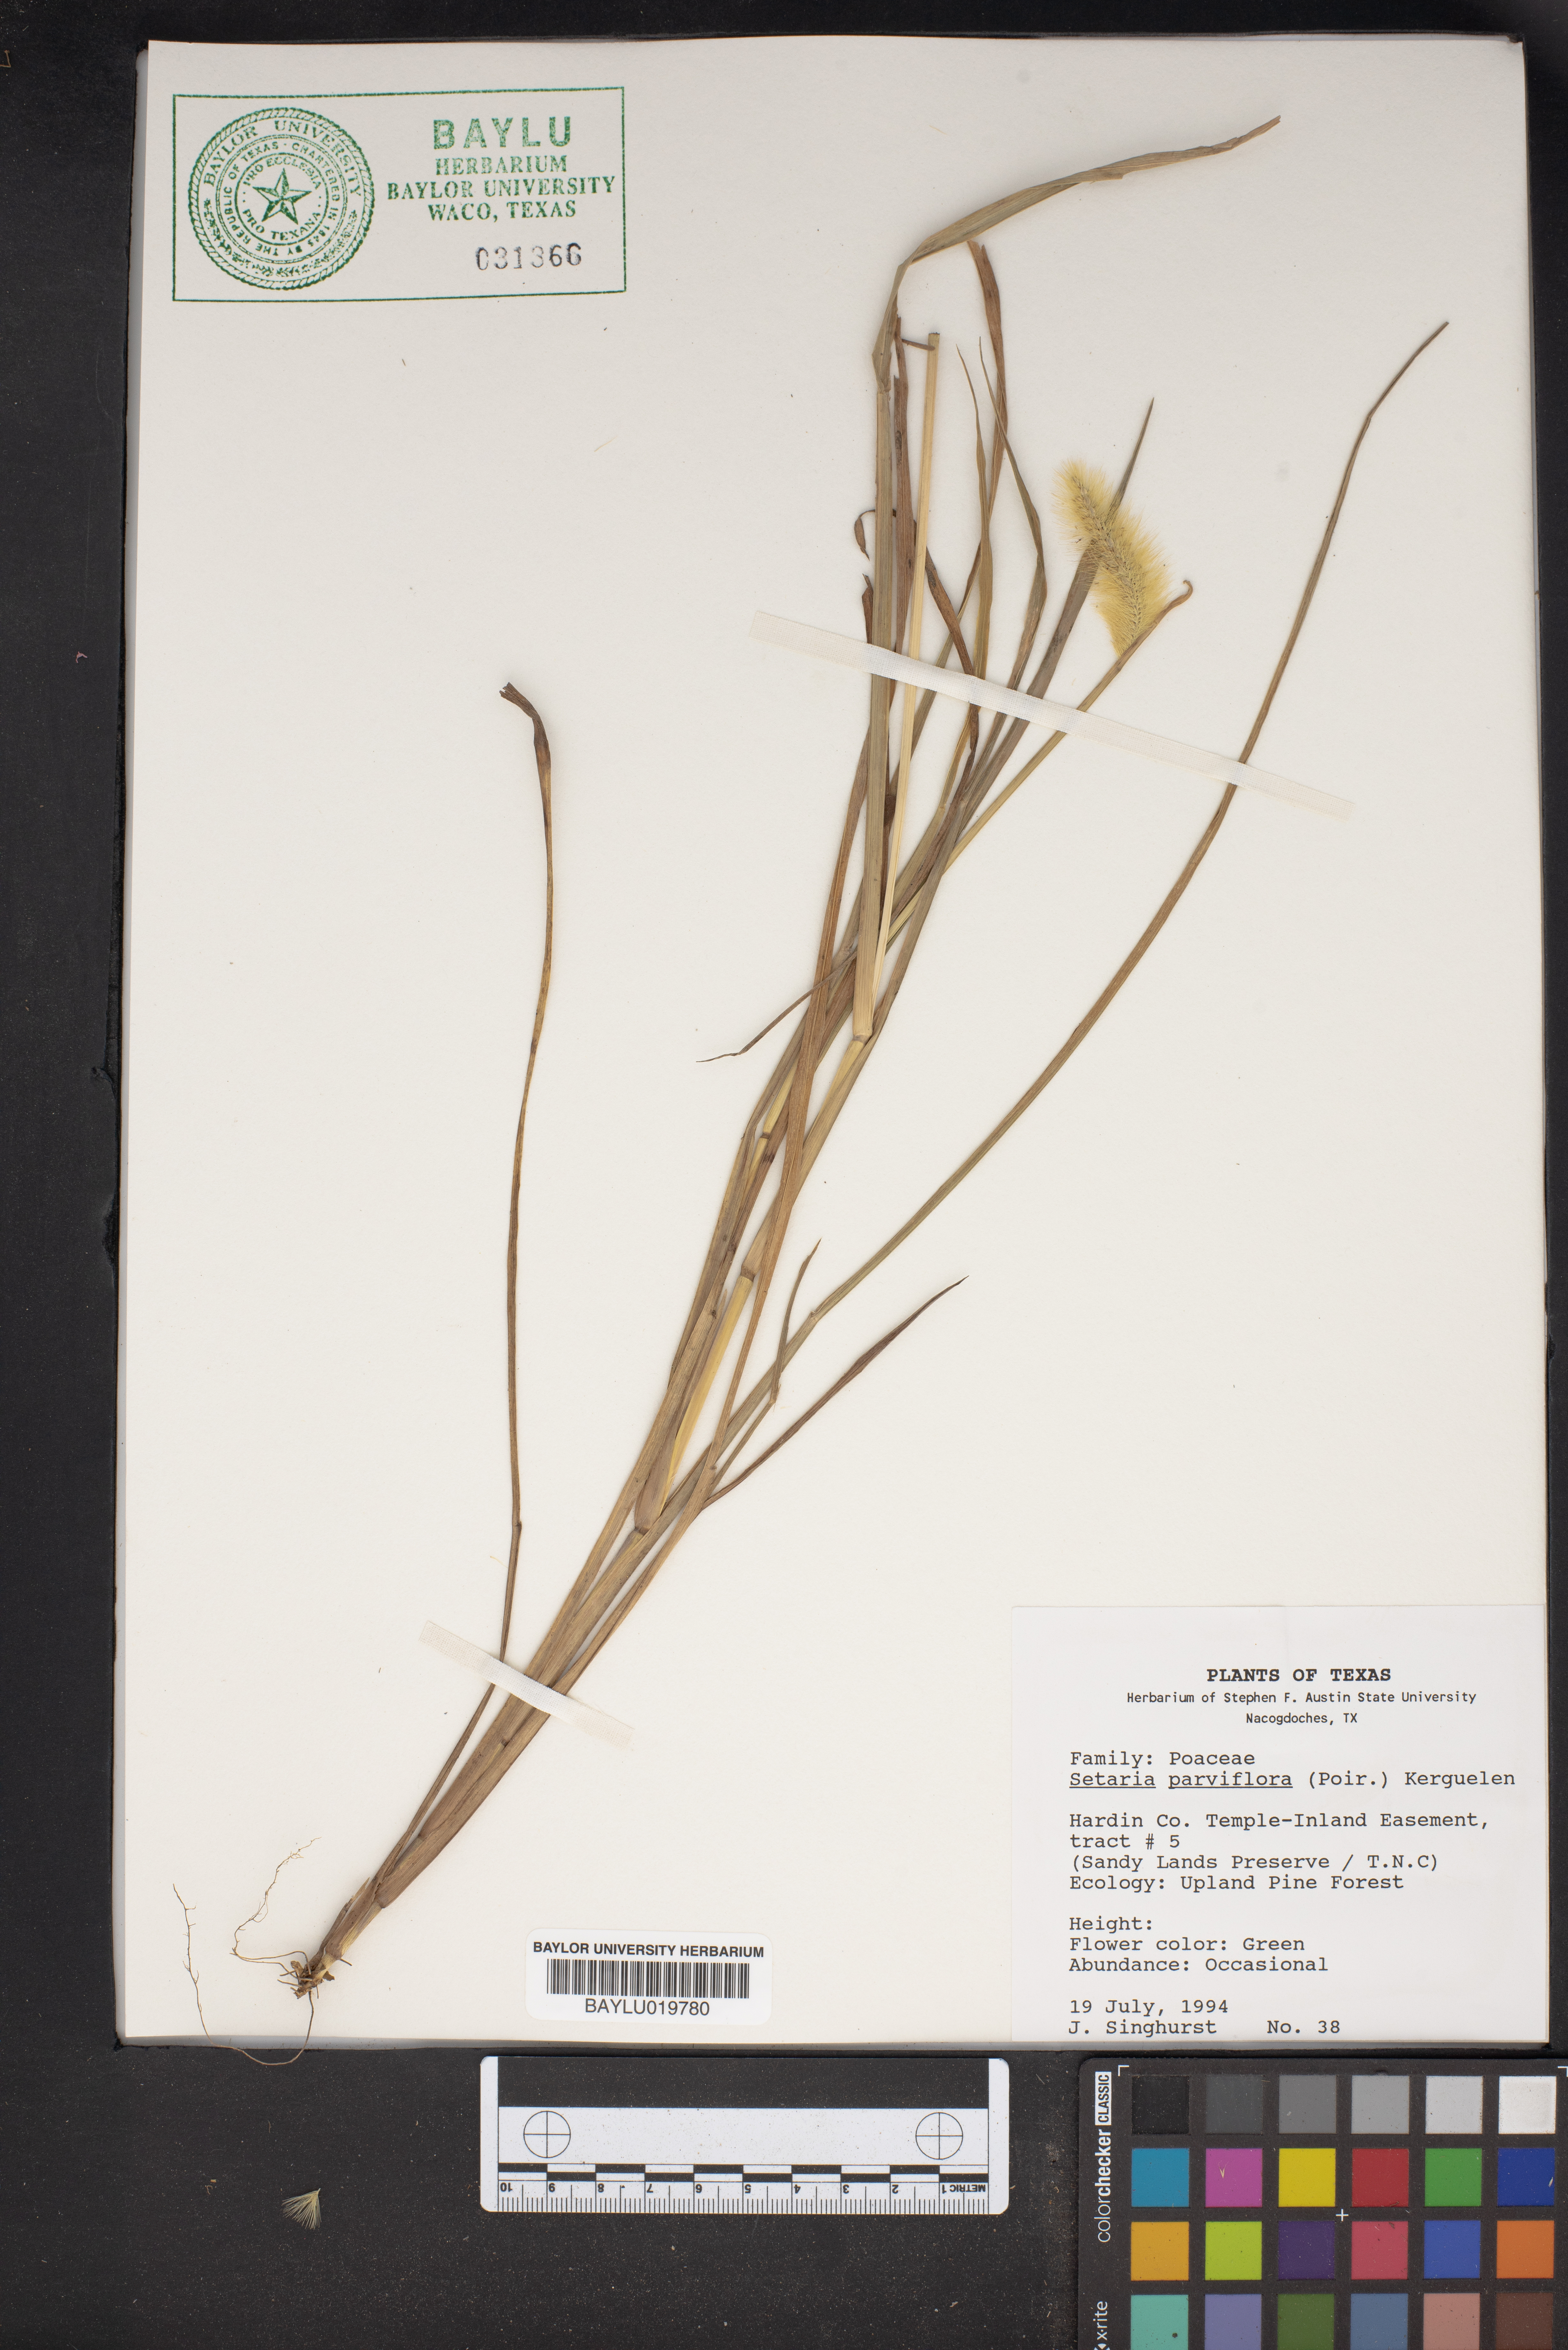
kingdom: Plantae
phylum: Tracheophyta
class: Liliopsida
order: Poales
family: Poaceae
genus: Setaria
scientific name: Setaria parviflora
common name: Knotroot bristle-grass
